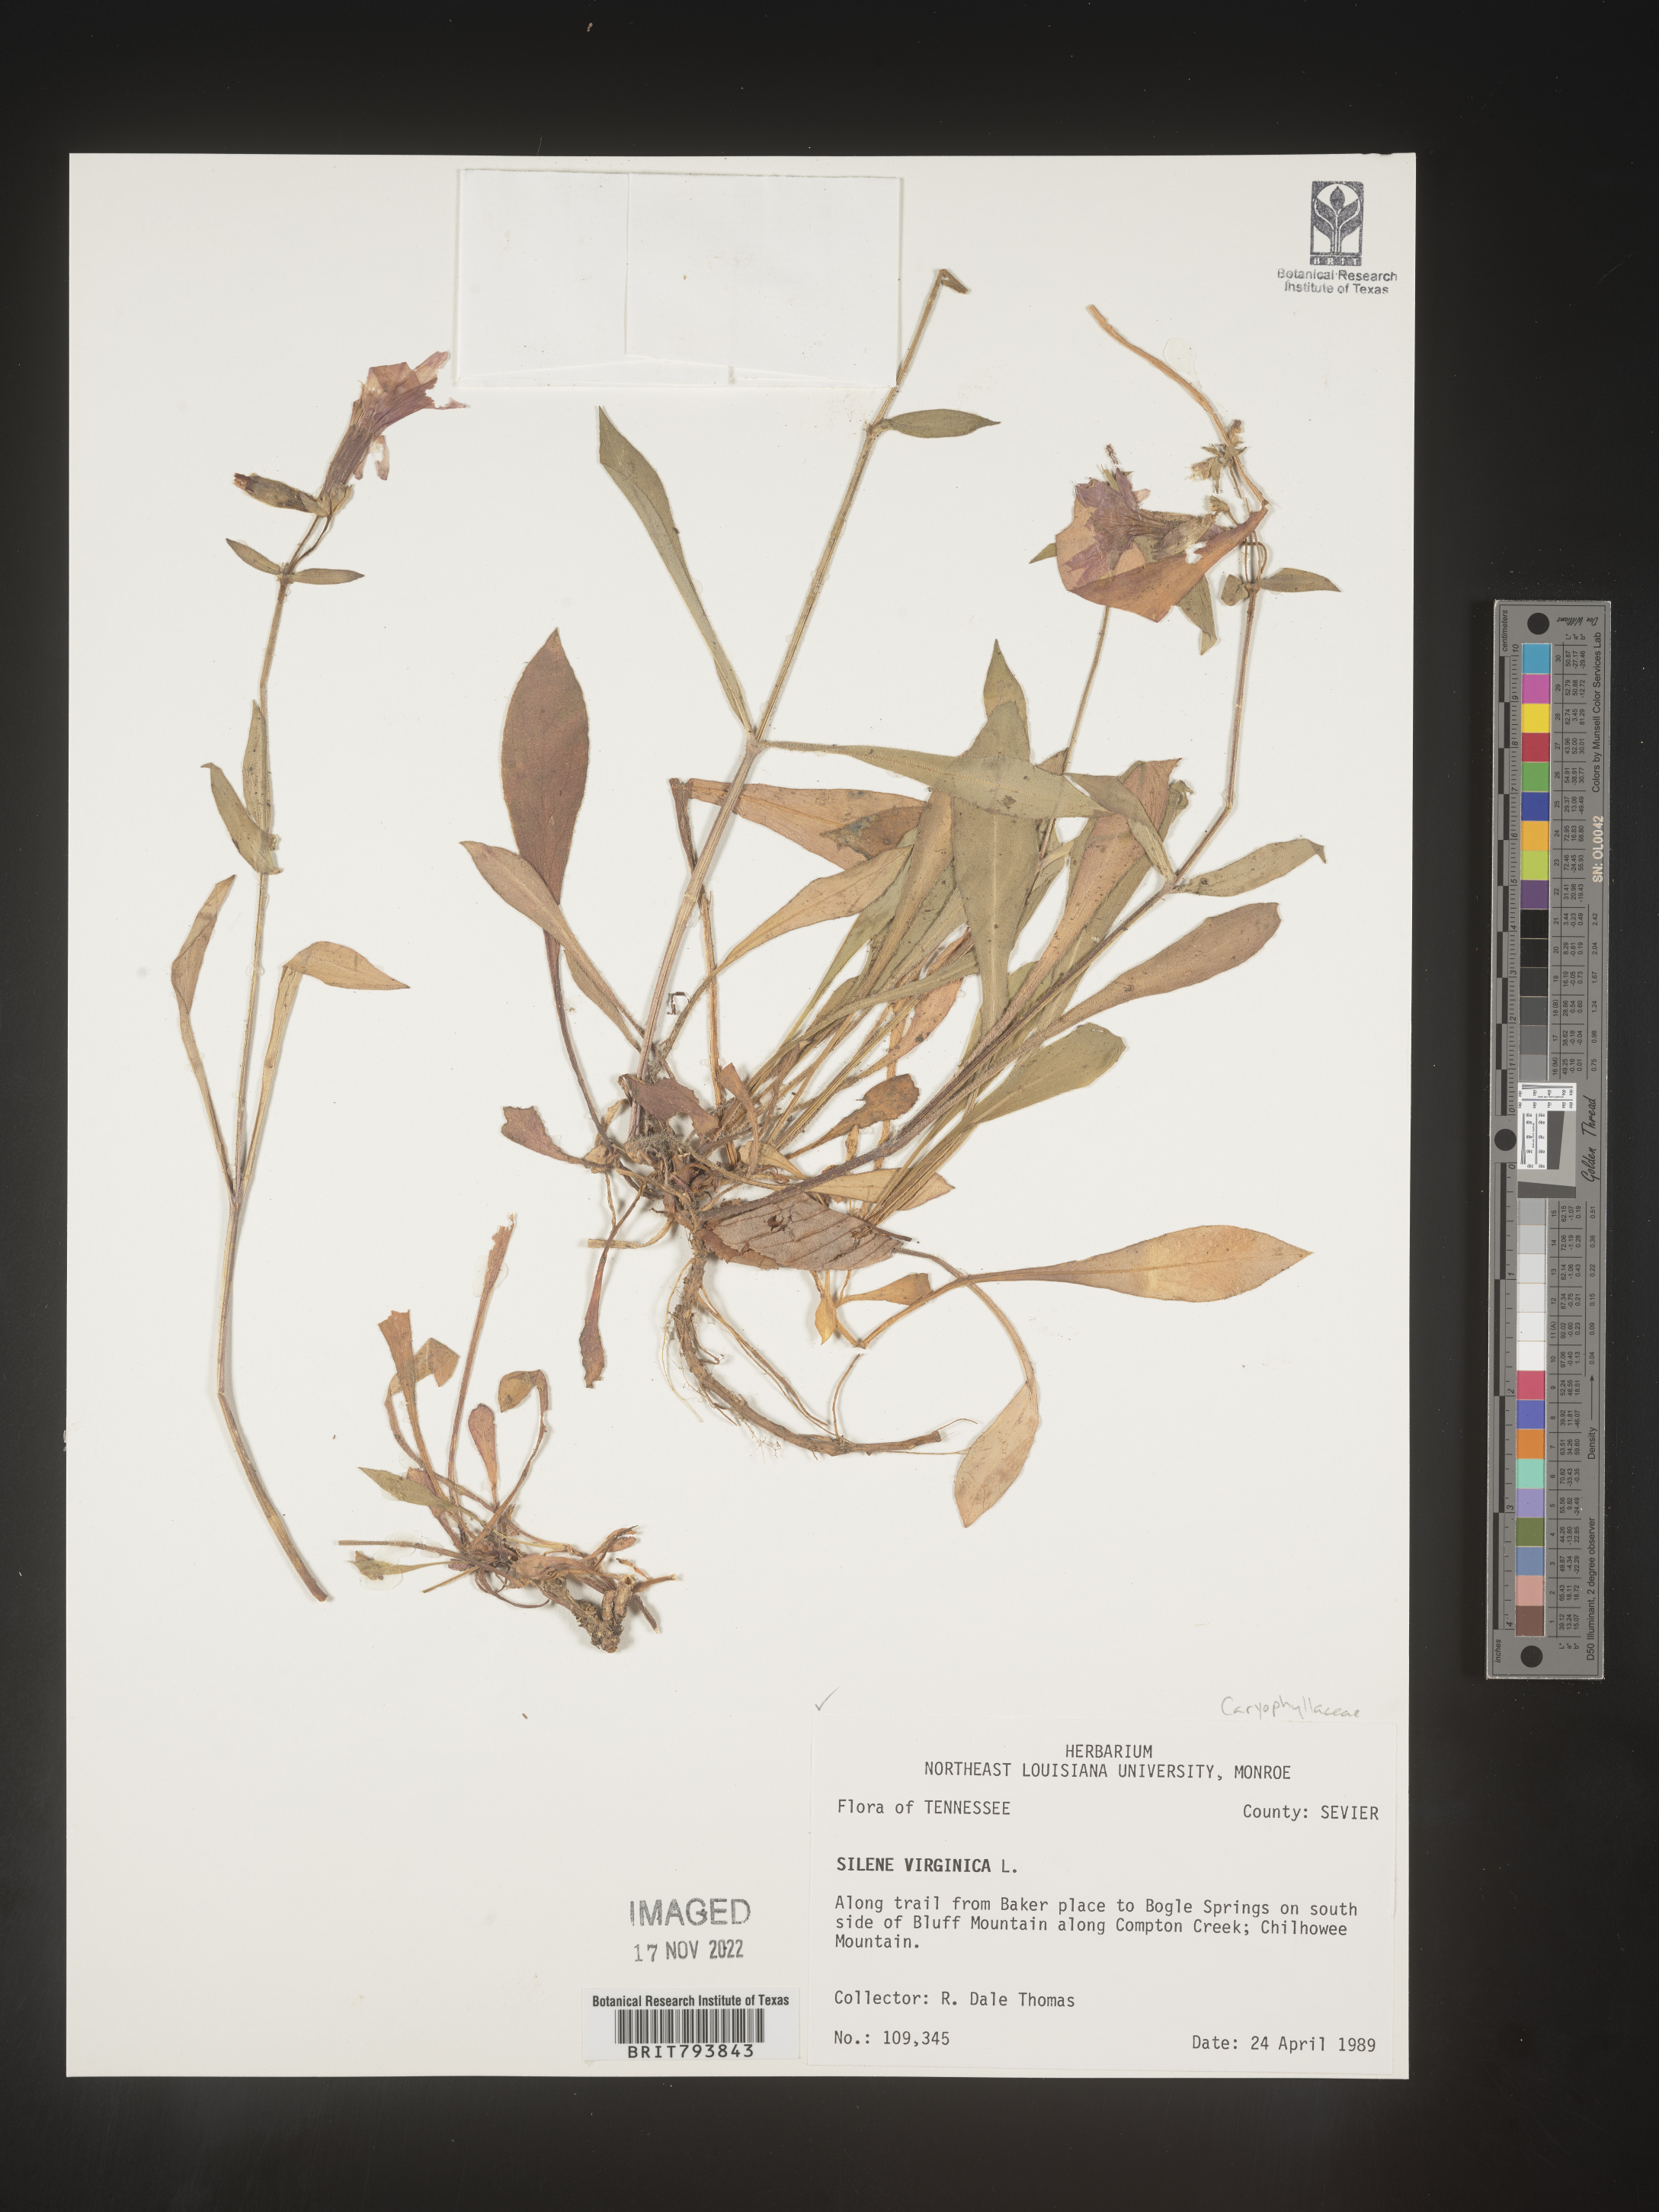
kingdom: Plantae
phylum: Tracheophyta
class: Magnoliopsida
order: Caryophyllales
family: Caryophyllaceae
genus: Silene
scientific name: Silene virginica
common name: Fire-pink
